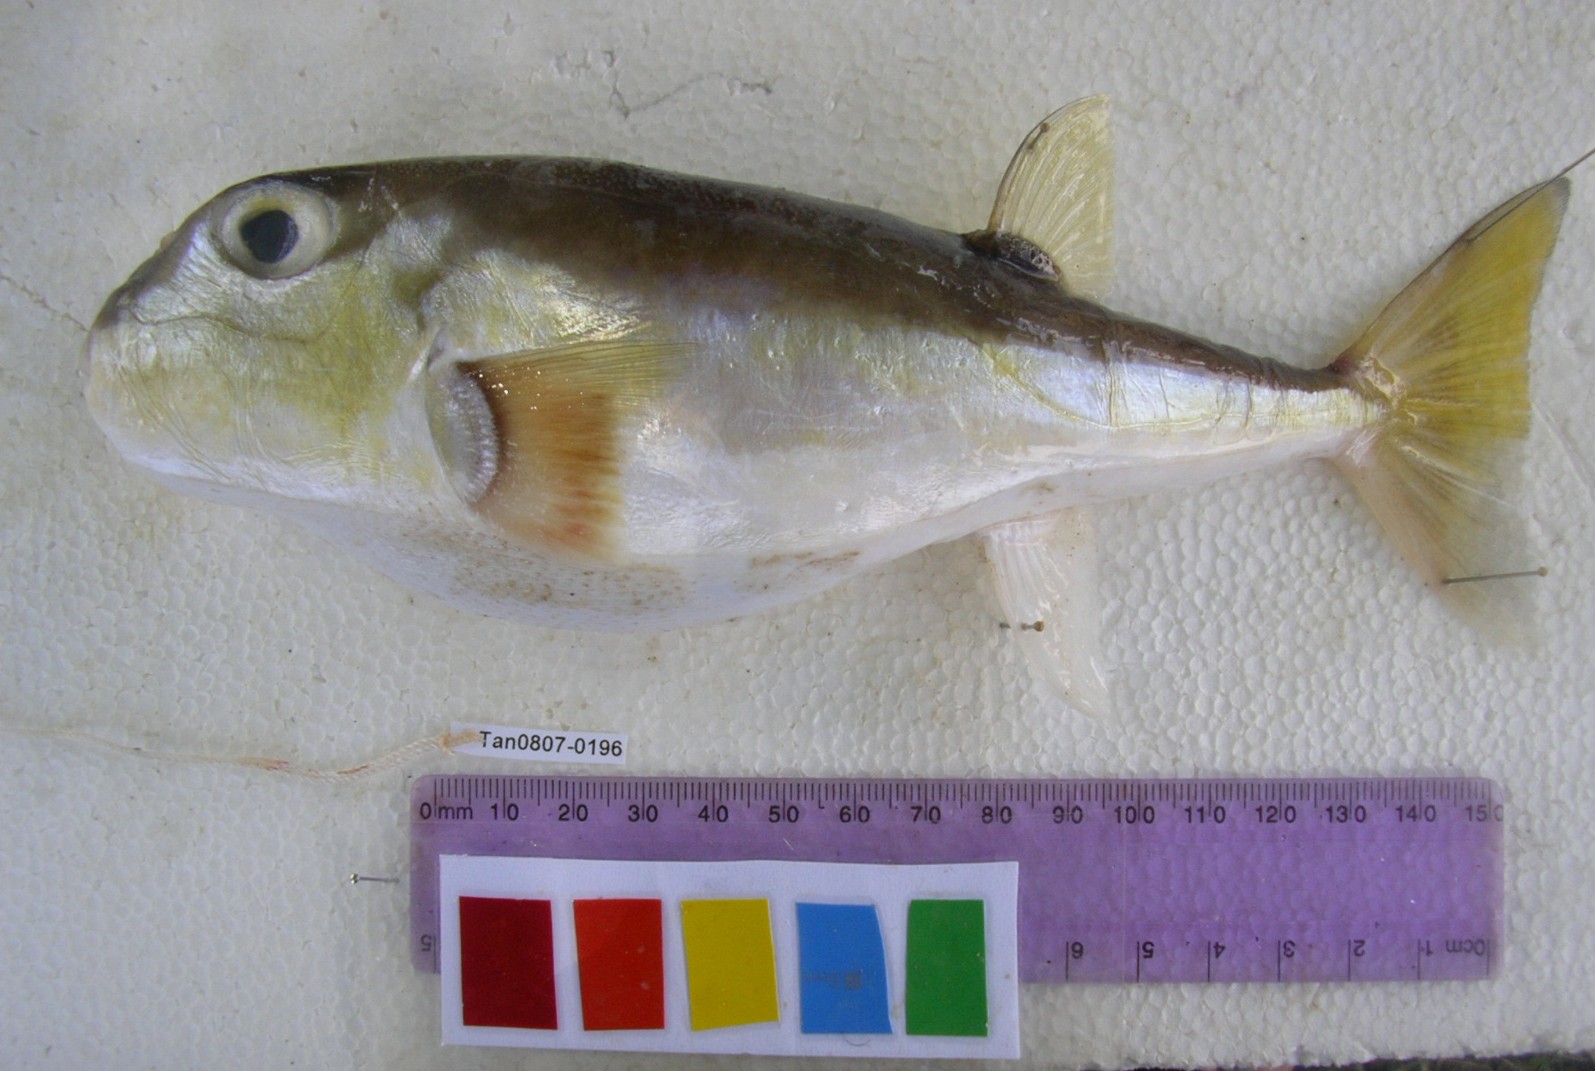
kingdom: Animalia
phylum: Chordata
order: Tetraodontiformes
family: Tetraodontidae
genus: Lagocephalus
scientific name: Lagocephalus lunaris
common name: Green rrough-backed puffer
